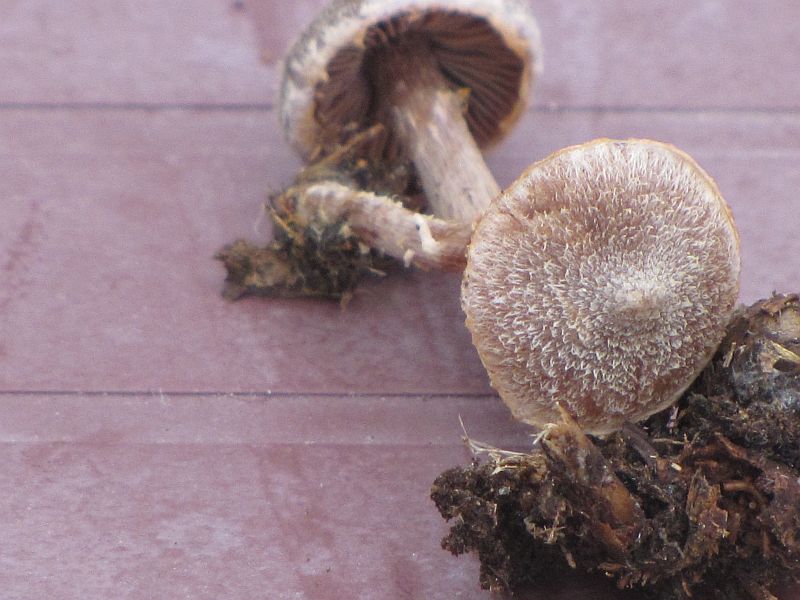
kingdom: Fungi
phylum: Basidiomycota
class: Agaricomycetes
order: Agaricales
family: Cortinariaceae
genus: Cortinarius
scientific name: Cortinarius
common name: pelargonie-slørhat
